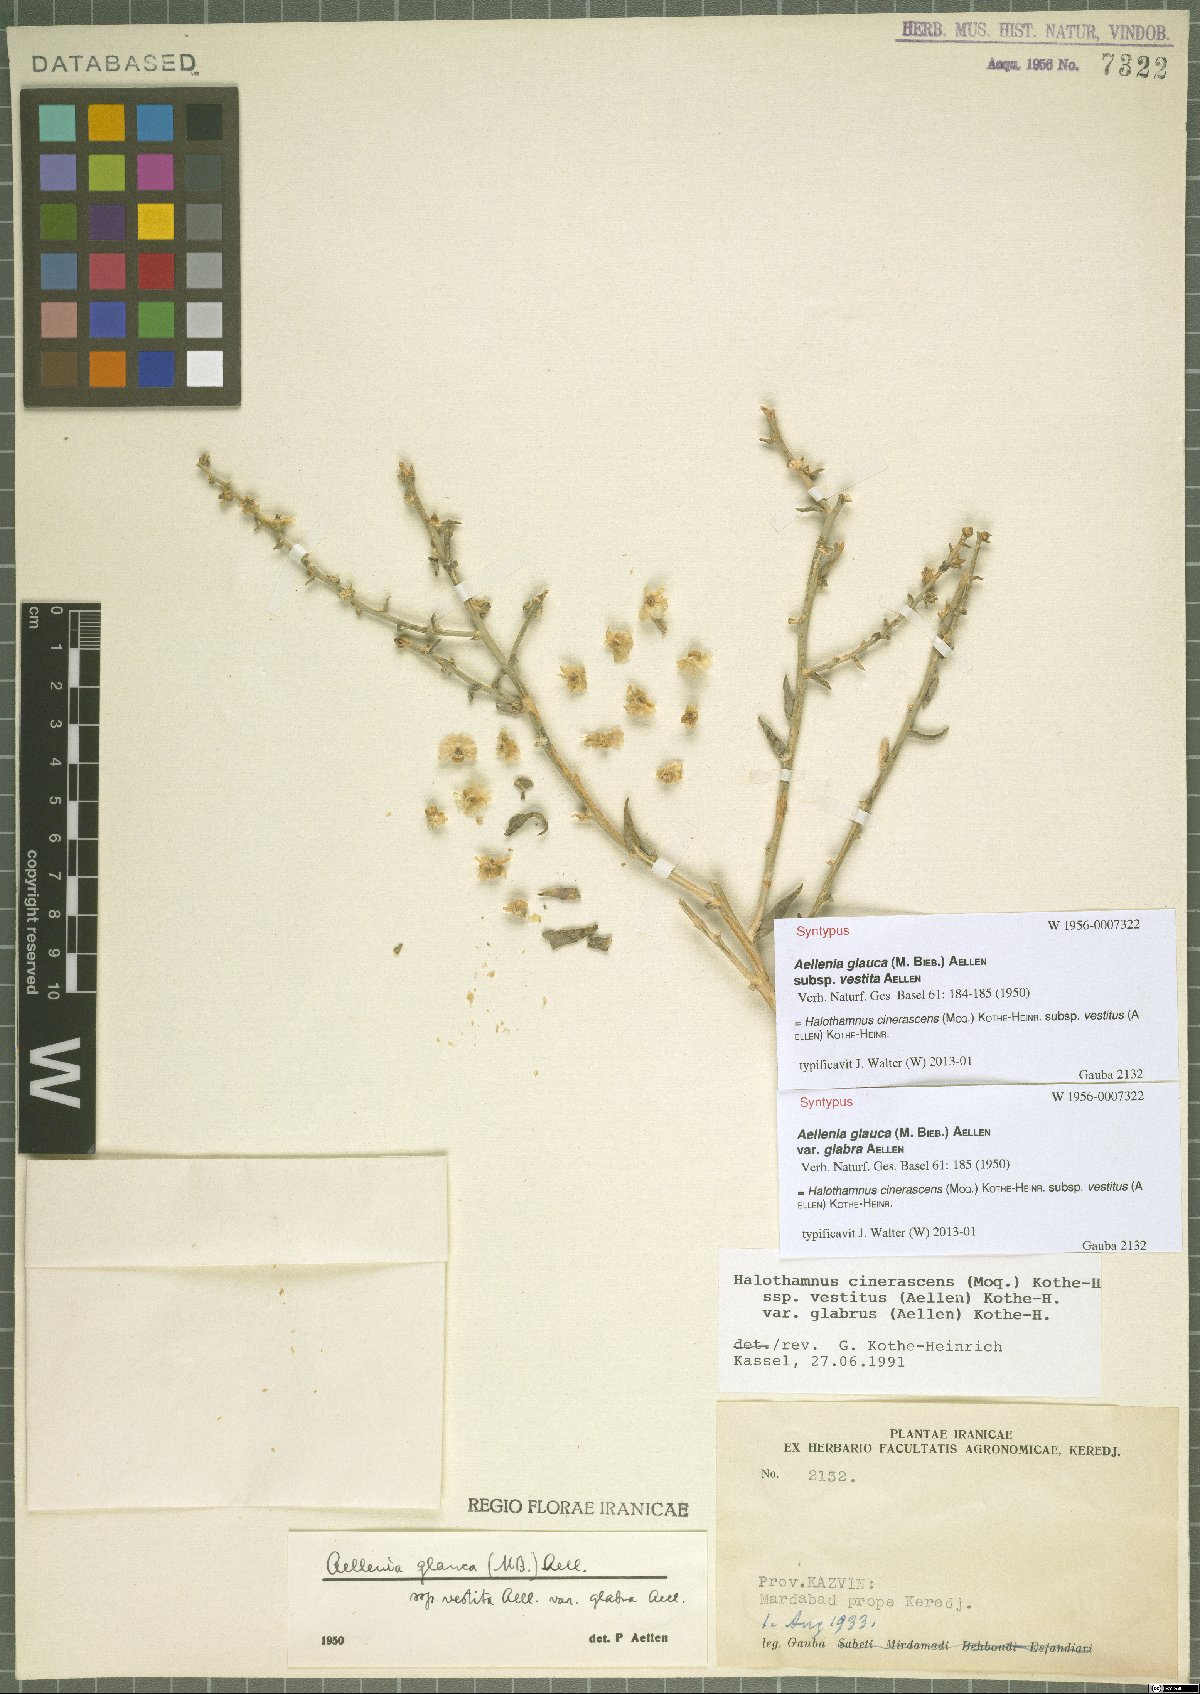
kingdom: Plantae
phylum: Tracheophyta
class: Magnoliopsida
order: Caryophyllales
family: Amaranthaceae
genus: Halothamnus
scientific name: Halothamnus cinerascens
